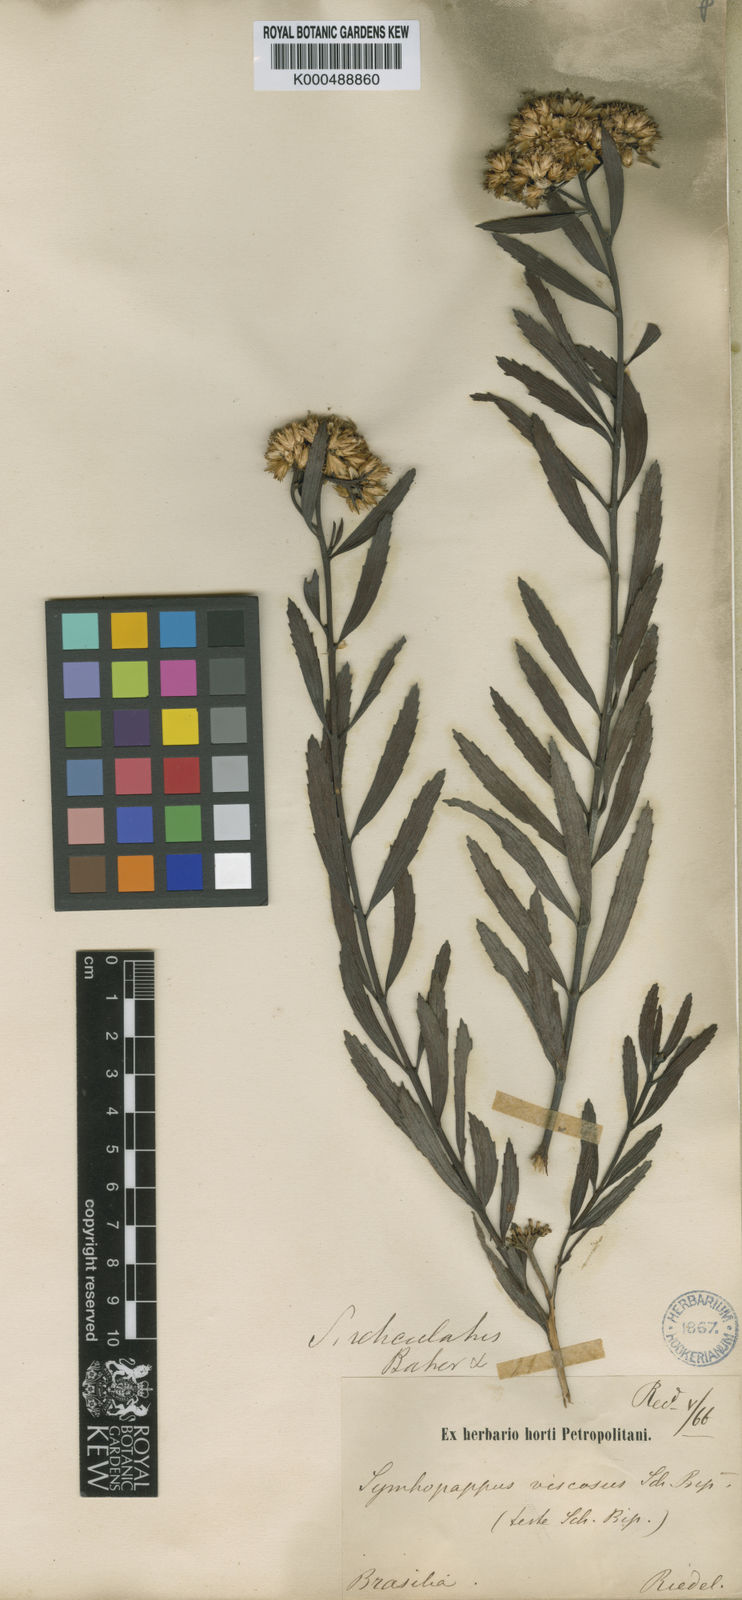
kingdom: Plantae
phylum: Tracheophyta
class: Magnoliopsida
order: Asterales
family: Asteraceae
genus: Symphyopappus
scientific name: Symphyopappus reticulatus
